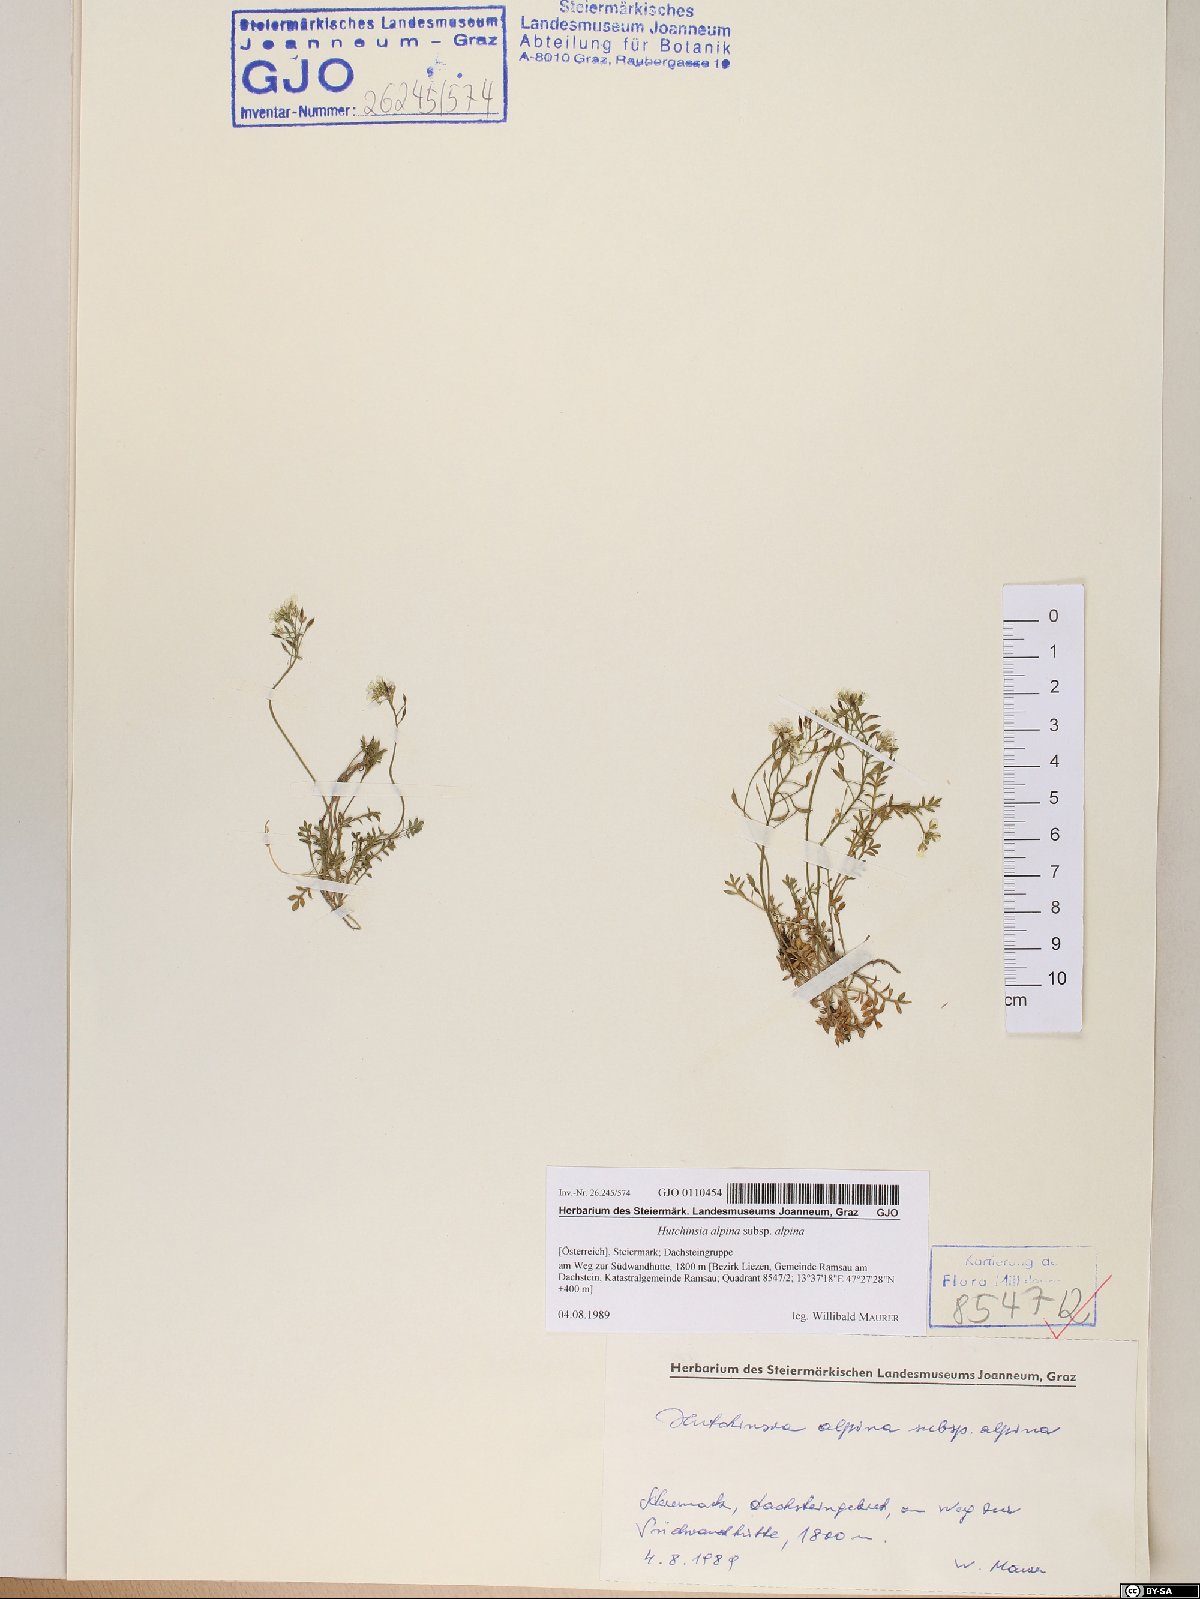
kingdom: Plantae
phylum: Tracheophyta
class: Magnoliopsida
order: Brassicales
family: Brassicaceae
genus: Hornungia
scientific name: Hornungia alpina
